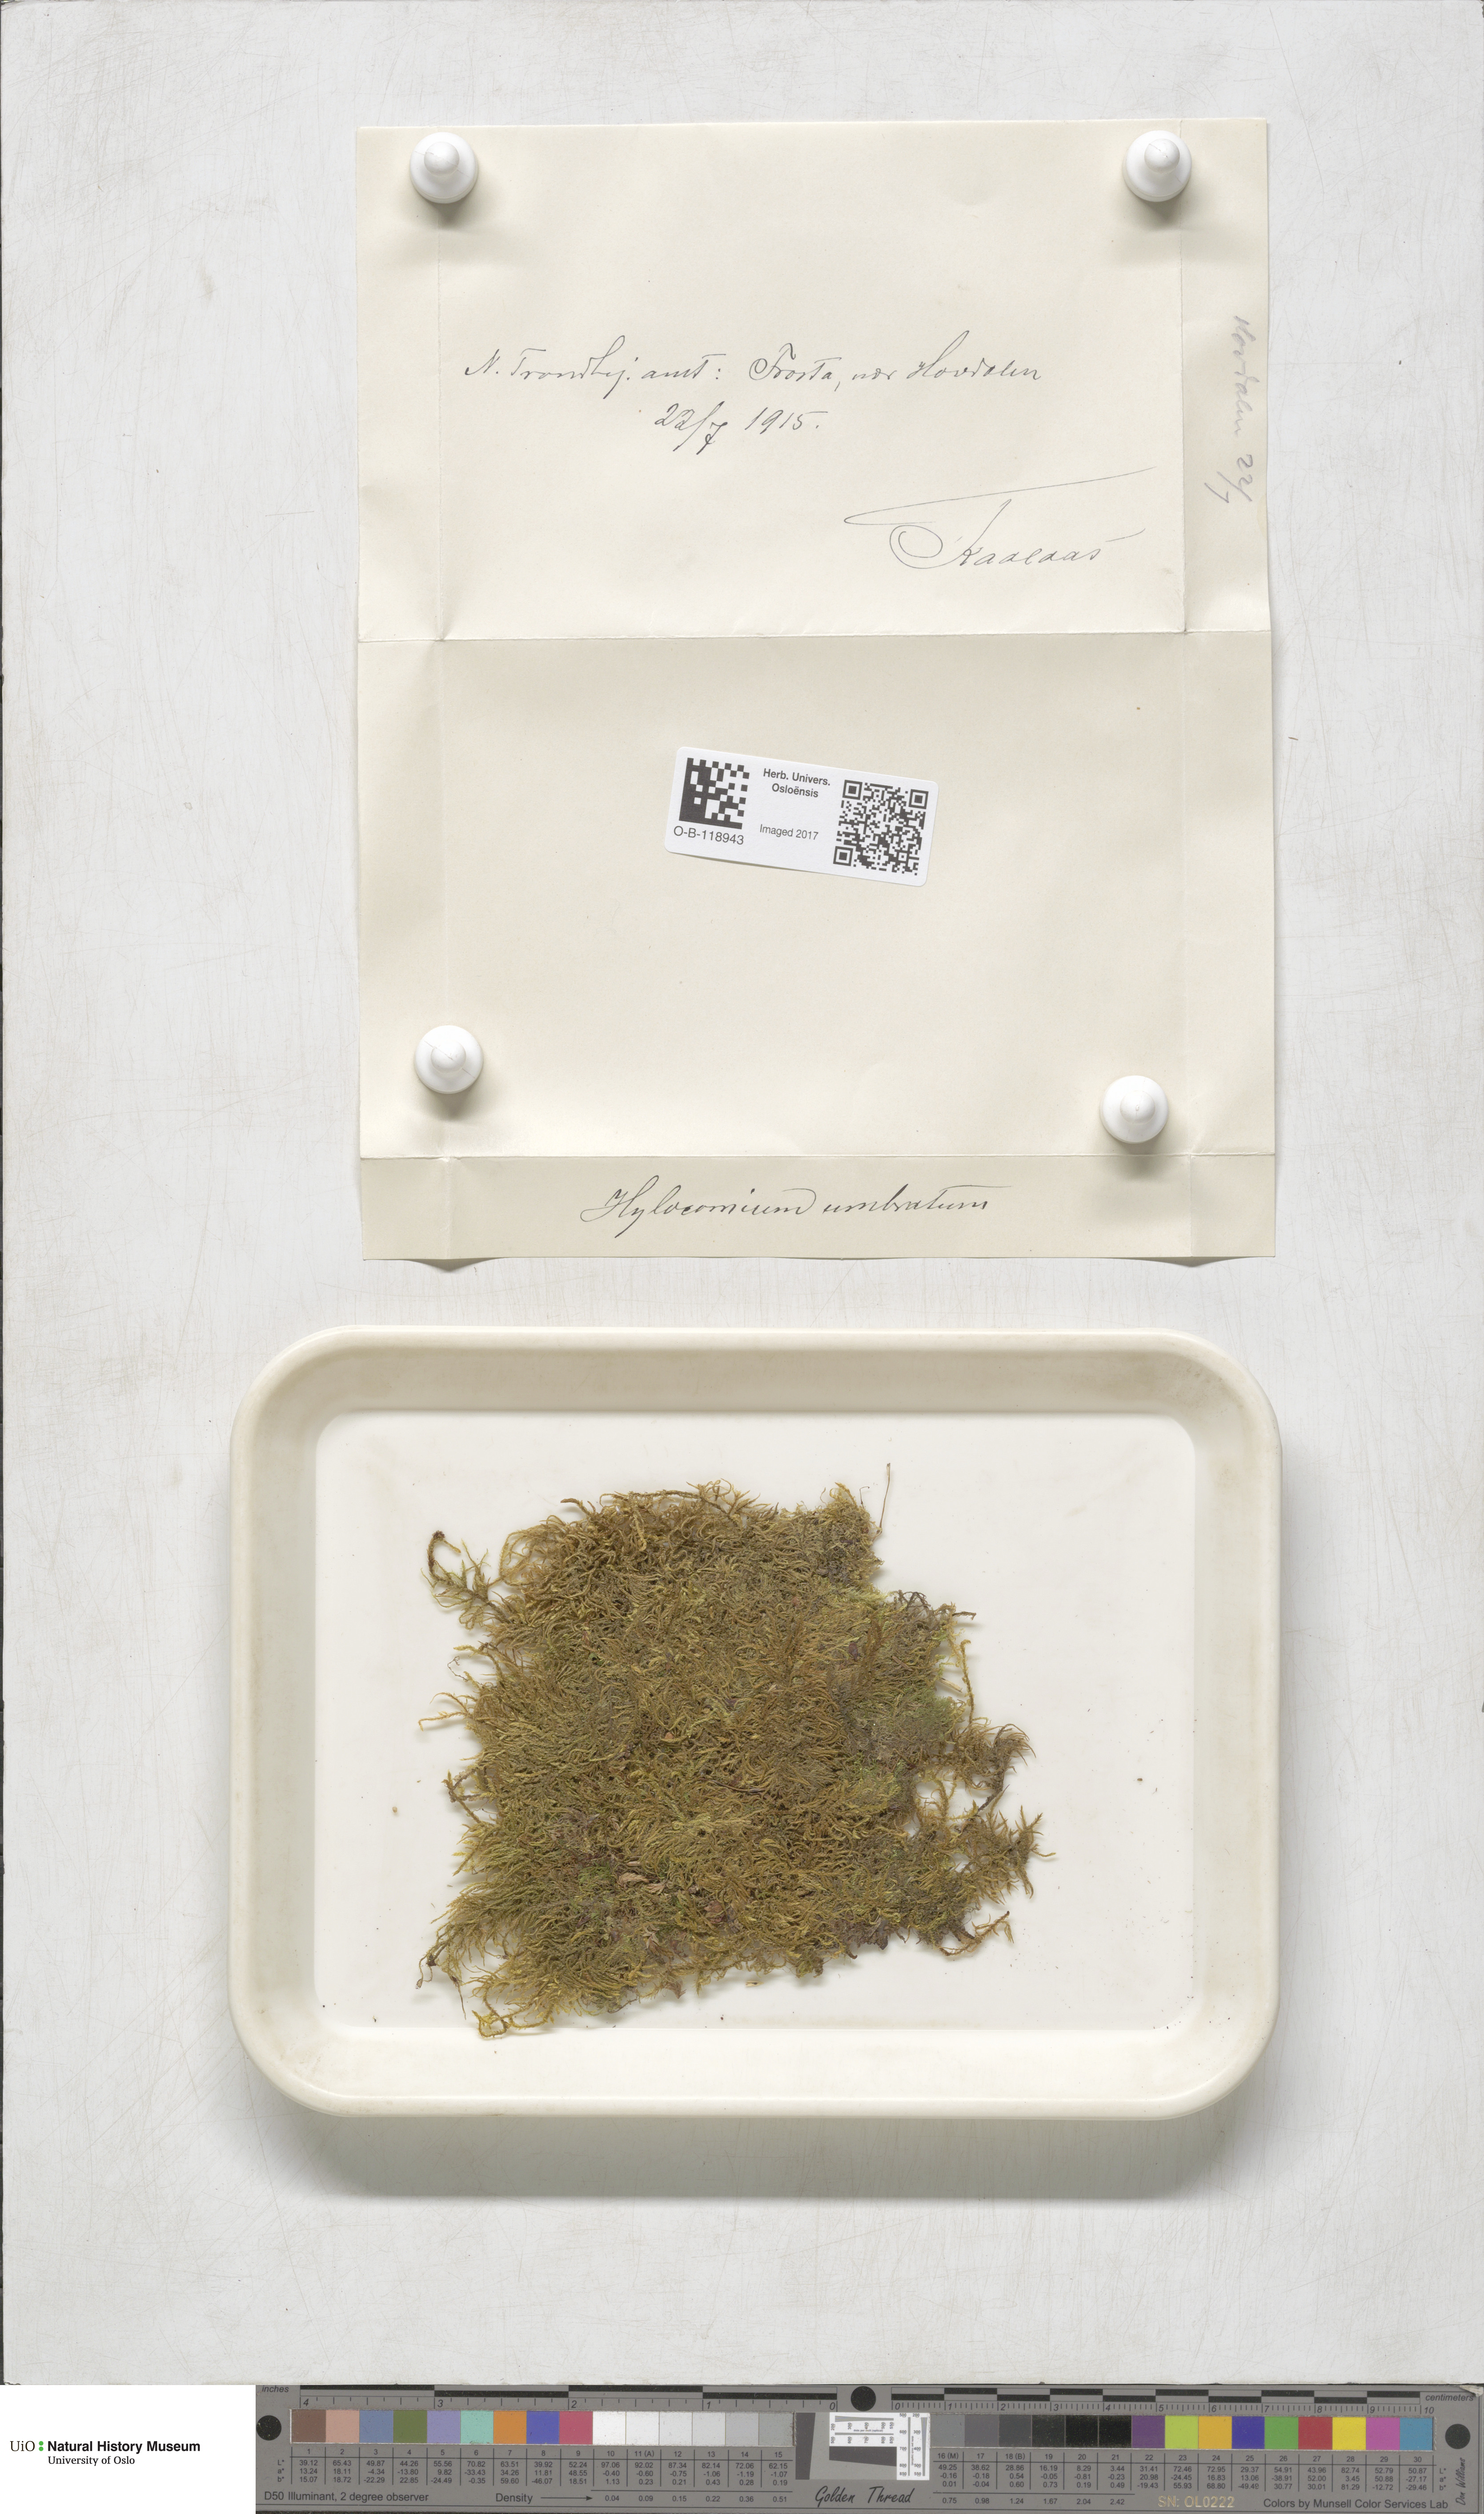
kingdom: Plantae
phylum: Bryophyta
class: Bryopsida
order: Hypnales
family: Hylocomiaceae
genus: Hylocomiastrum
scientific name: Hylocomiastrum umbratum
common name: Shaded woods moss
